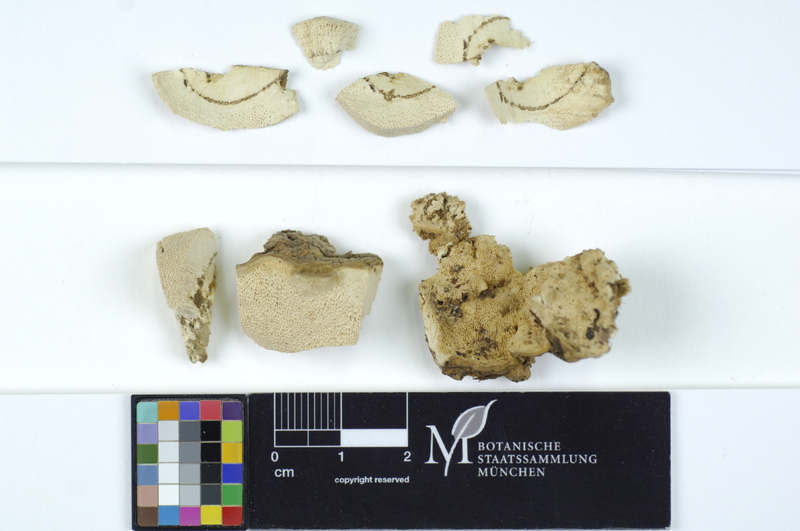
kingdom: Plantae
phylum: Tracheophyta
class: Pinopsida
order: Pinales
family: Pinaceae
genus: Picea
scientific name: Picea abies
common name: Norway spruce
